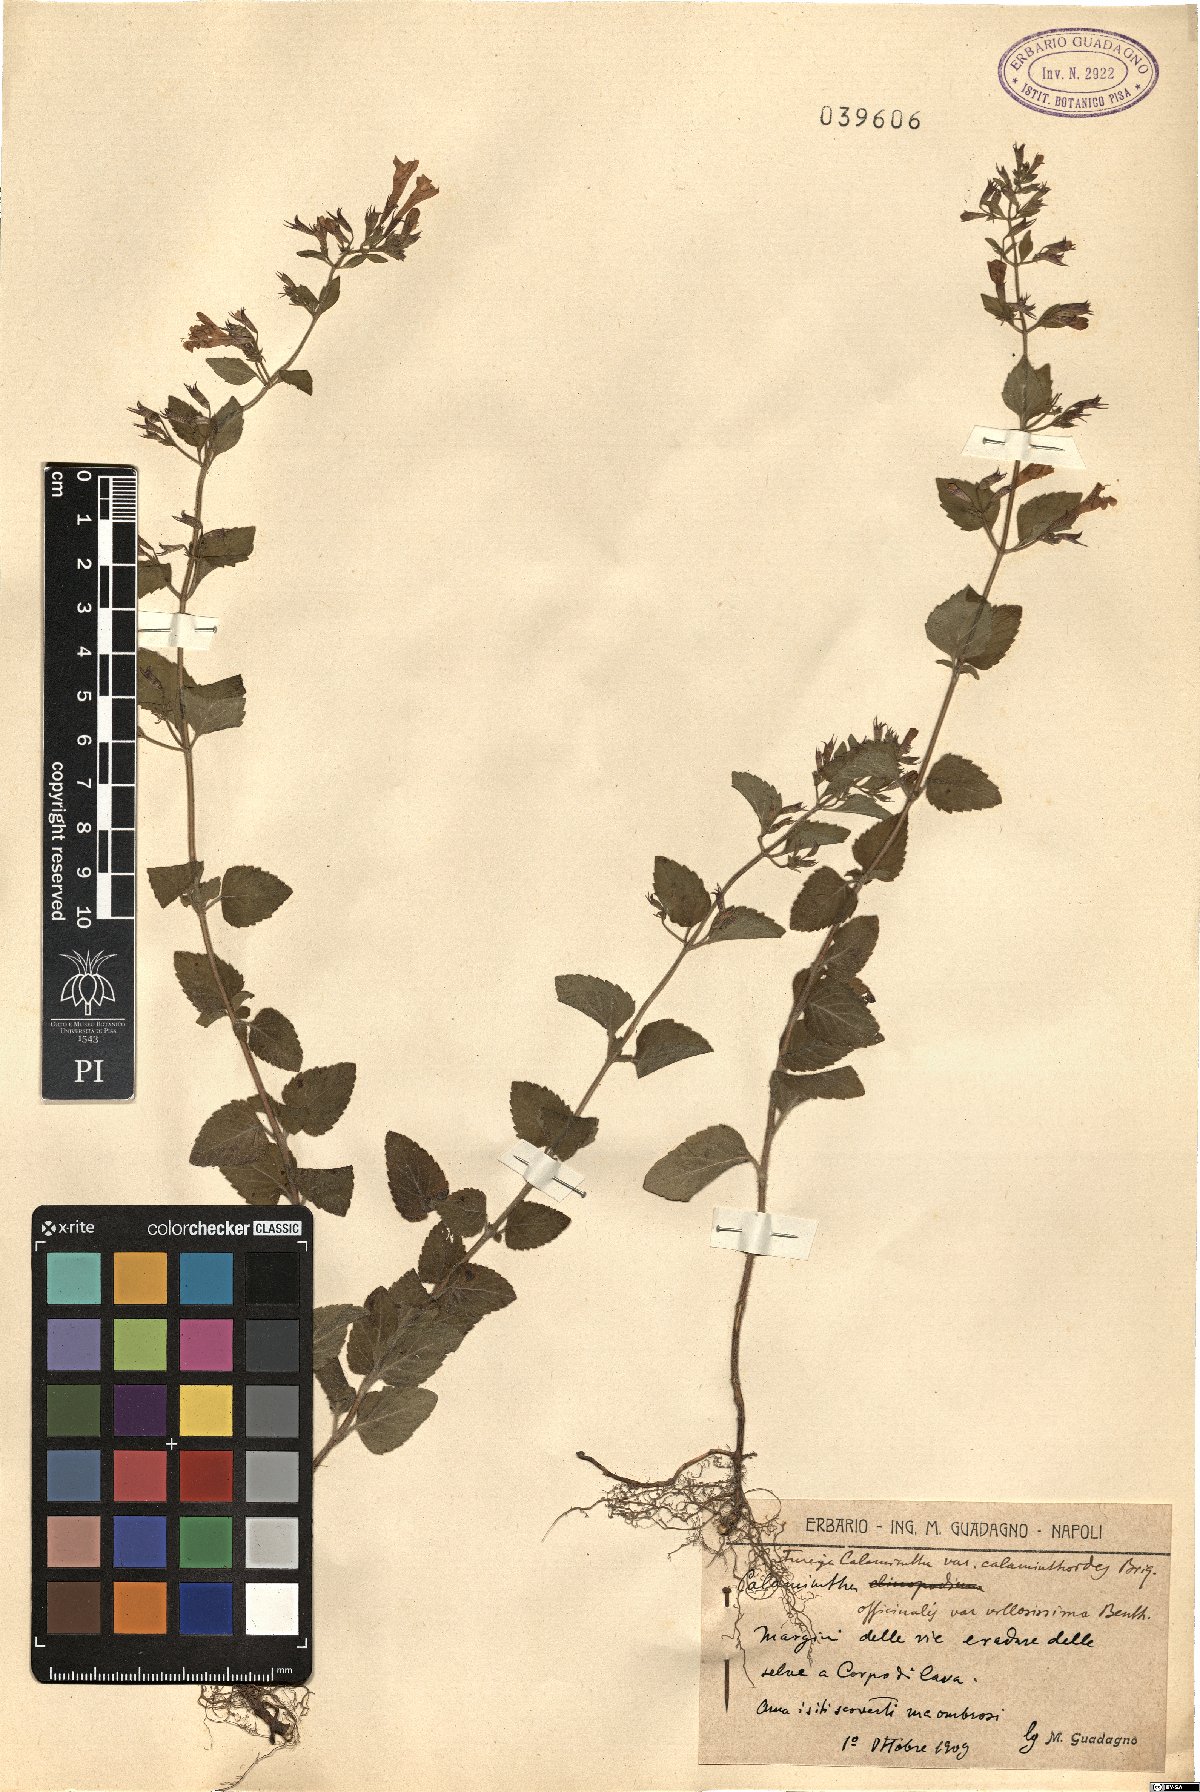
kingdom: Plantae
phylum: Tracheophyta
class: Magnoliopsida
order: Lamiales
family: Lamiaceae
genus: Clinopodium
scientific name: Clinopodium nepeta
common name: Lesser calamint
